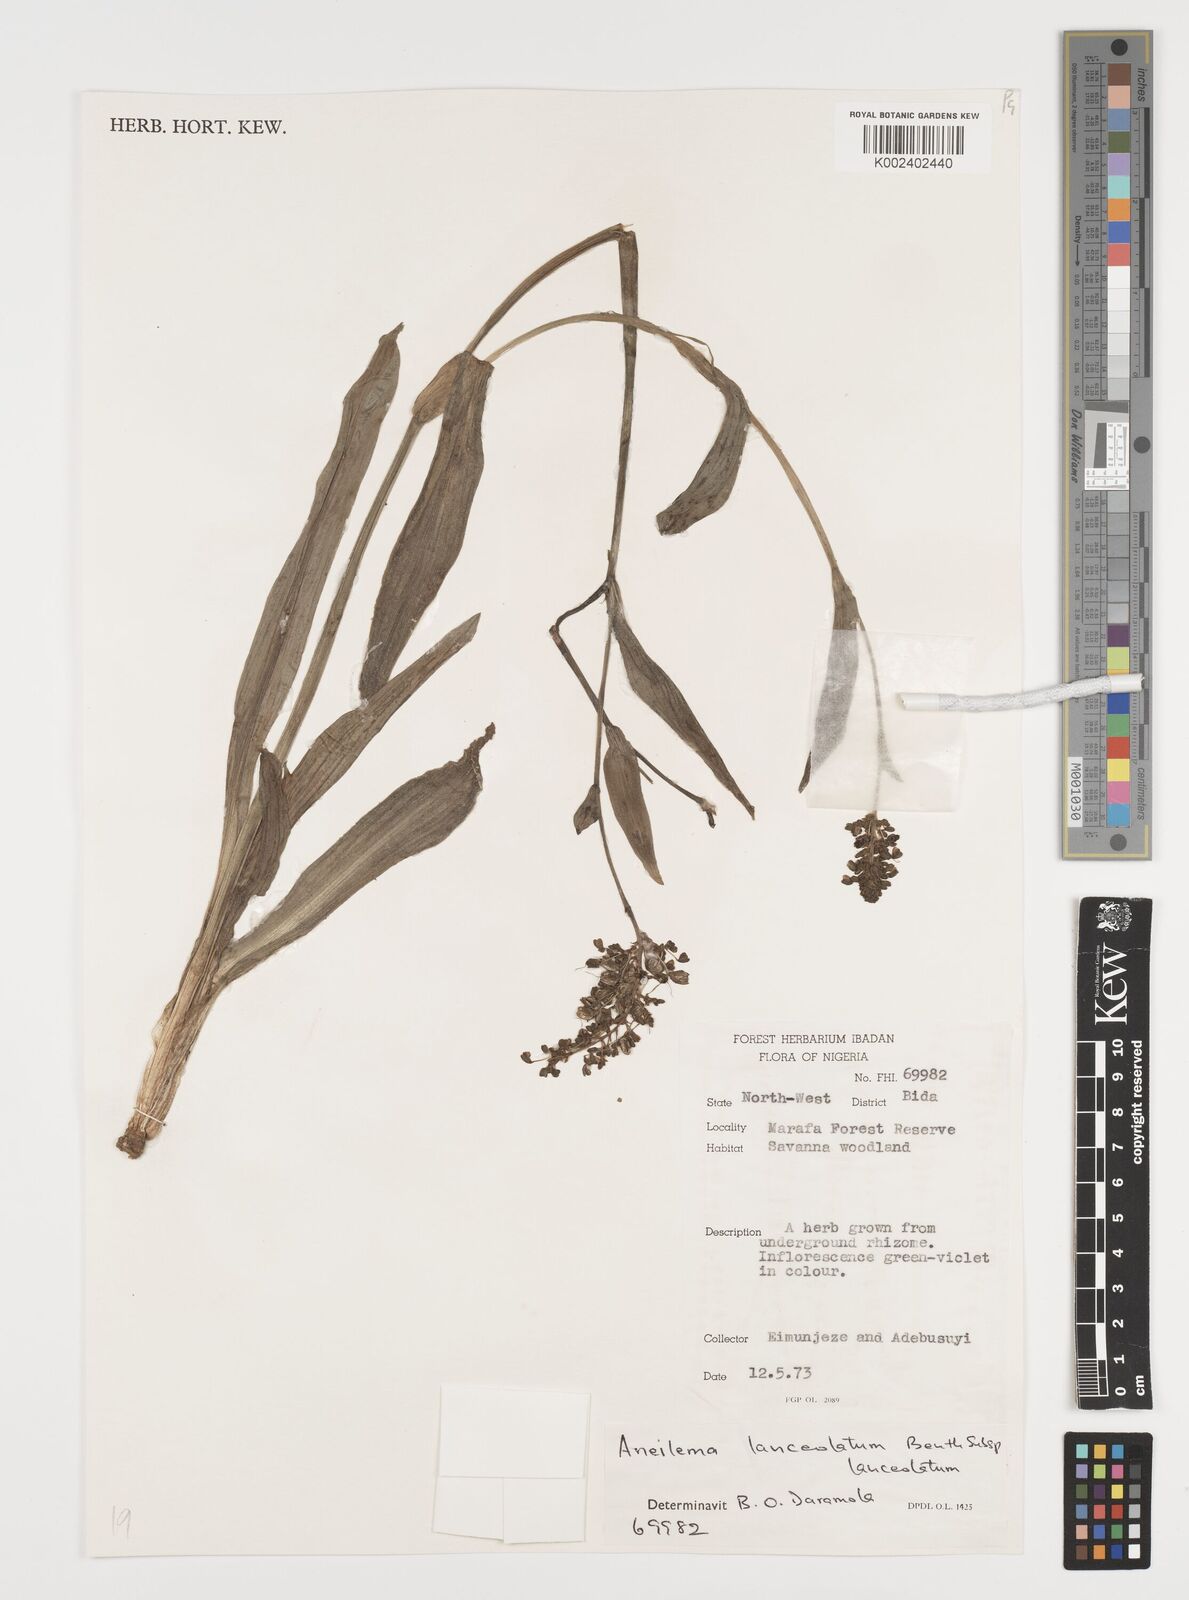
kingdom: Plantae
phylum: Tracheophyta
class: Liliopsida
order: Commelinales
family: Commelinaceae
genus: Aneilema
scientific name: Aneilema lanceolatum
